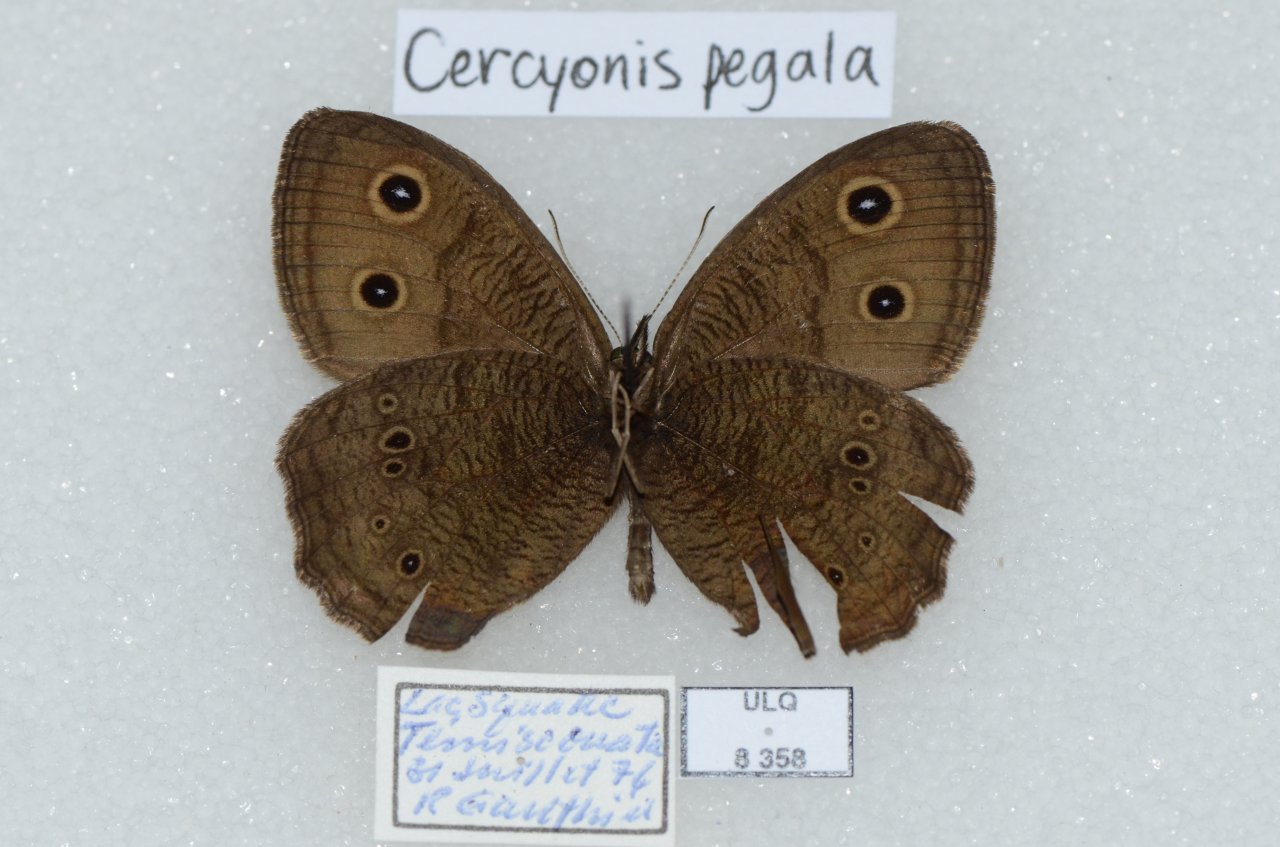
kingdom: Animalia
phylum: Arthropoda
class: Insecta
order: Lepidoptera
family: Nymphalidae
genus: Cercyonis
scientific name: Cercyonis pegala
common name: Common Wood-Nymph
